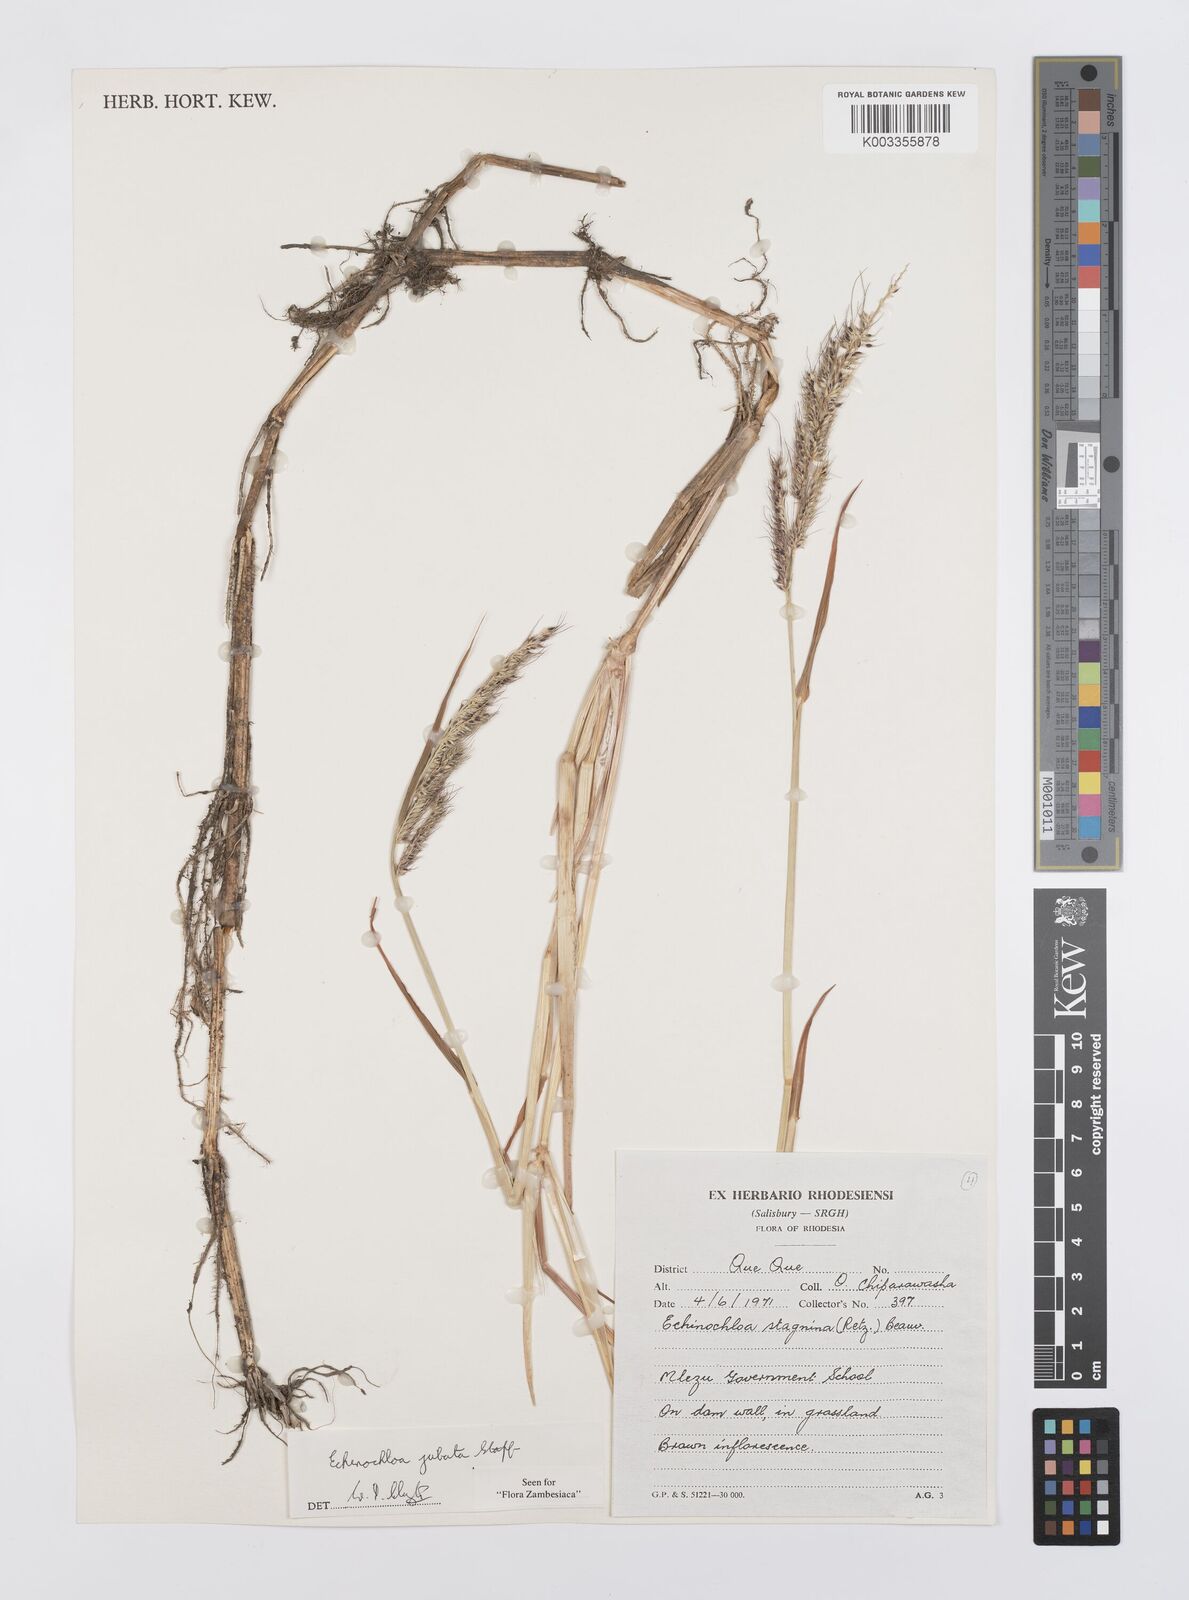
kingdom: Plantae
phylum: Tracheophyta
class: Liliopsida
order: Poales
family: Poaceae
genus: Echinochloa
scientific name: Echinochloa jubata
